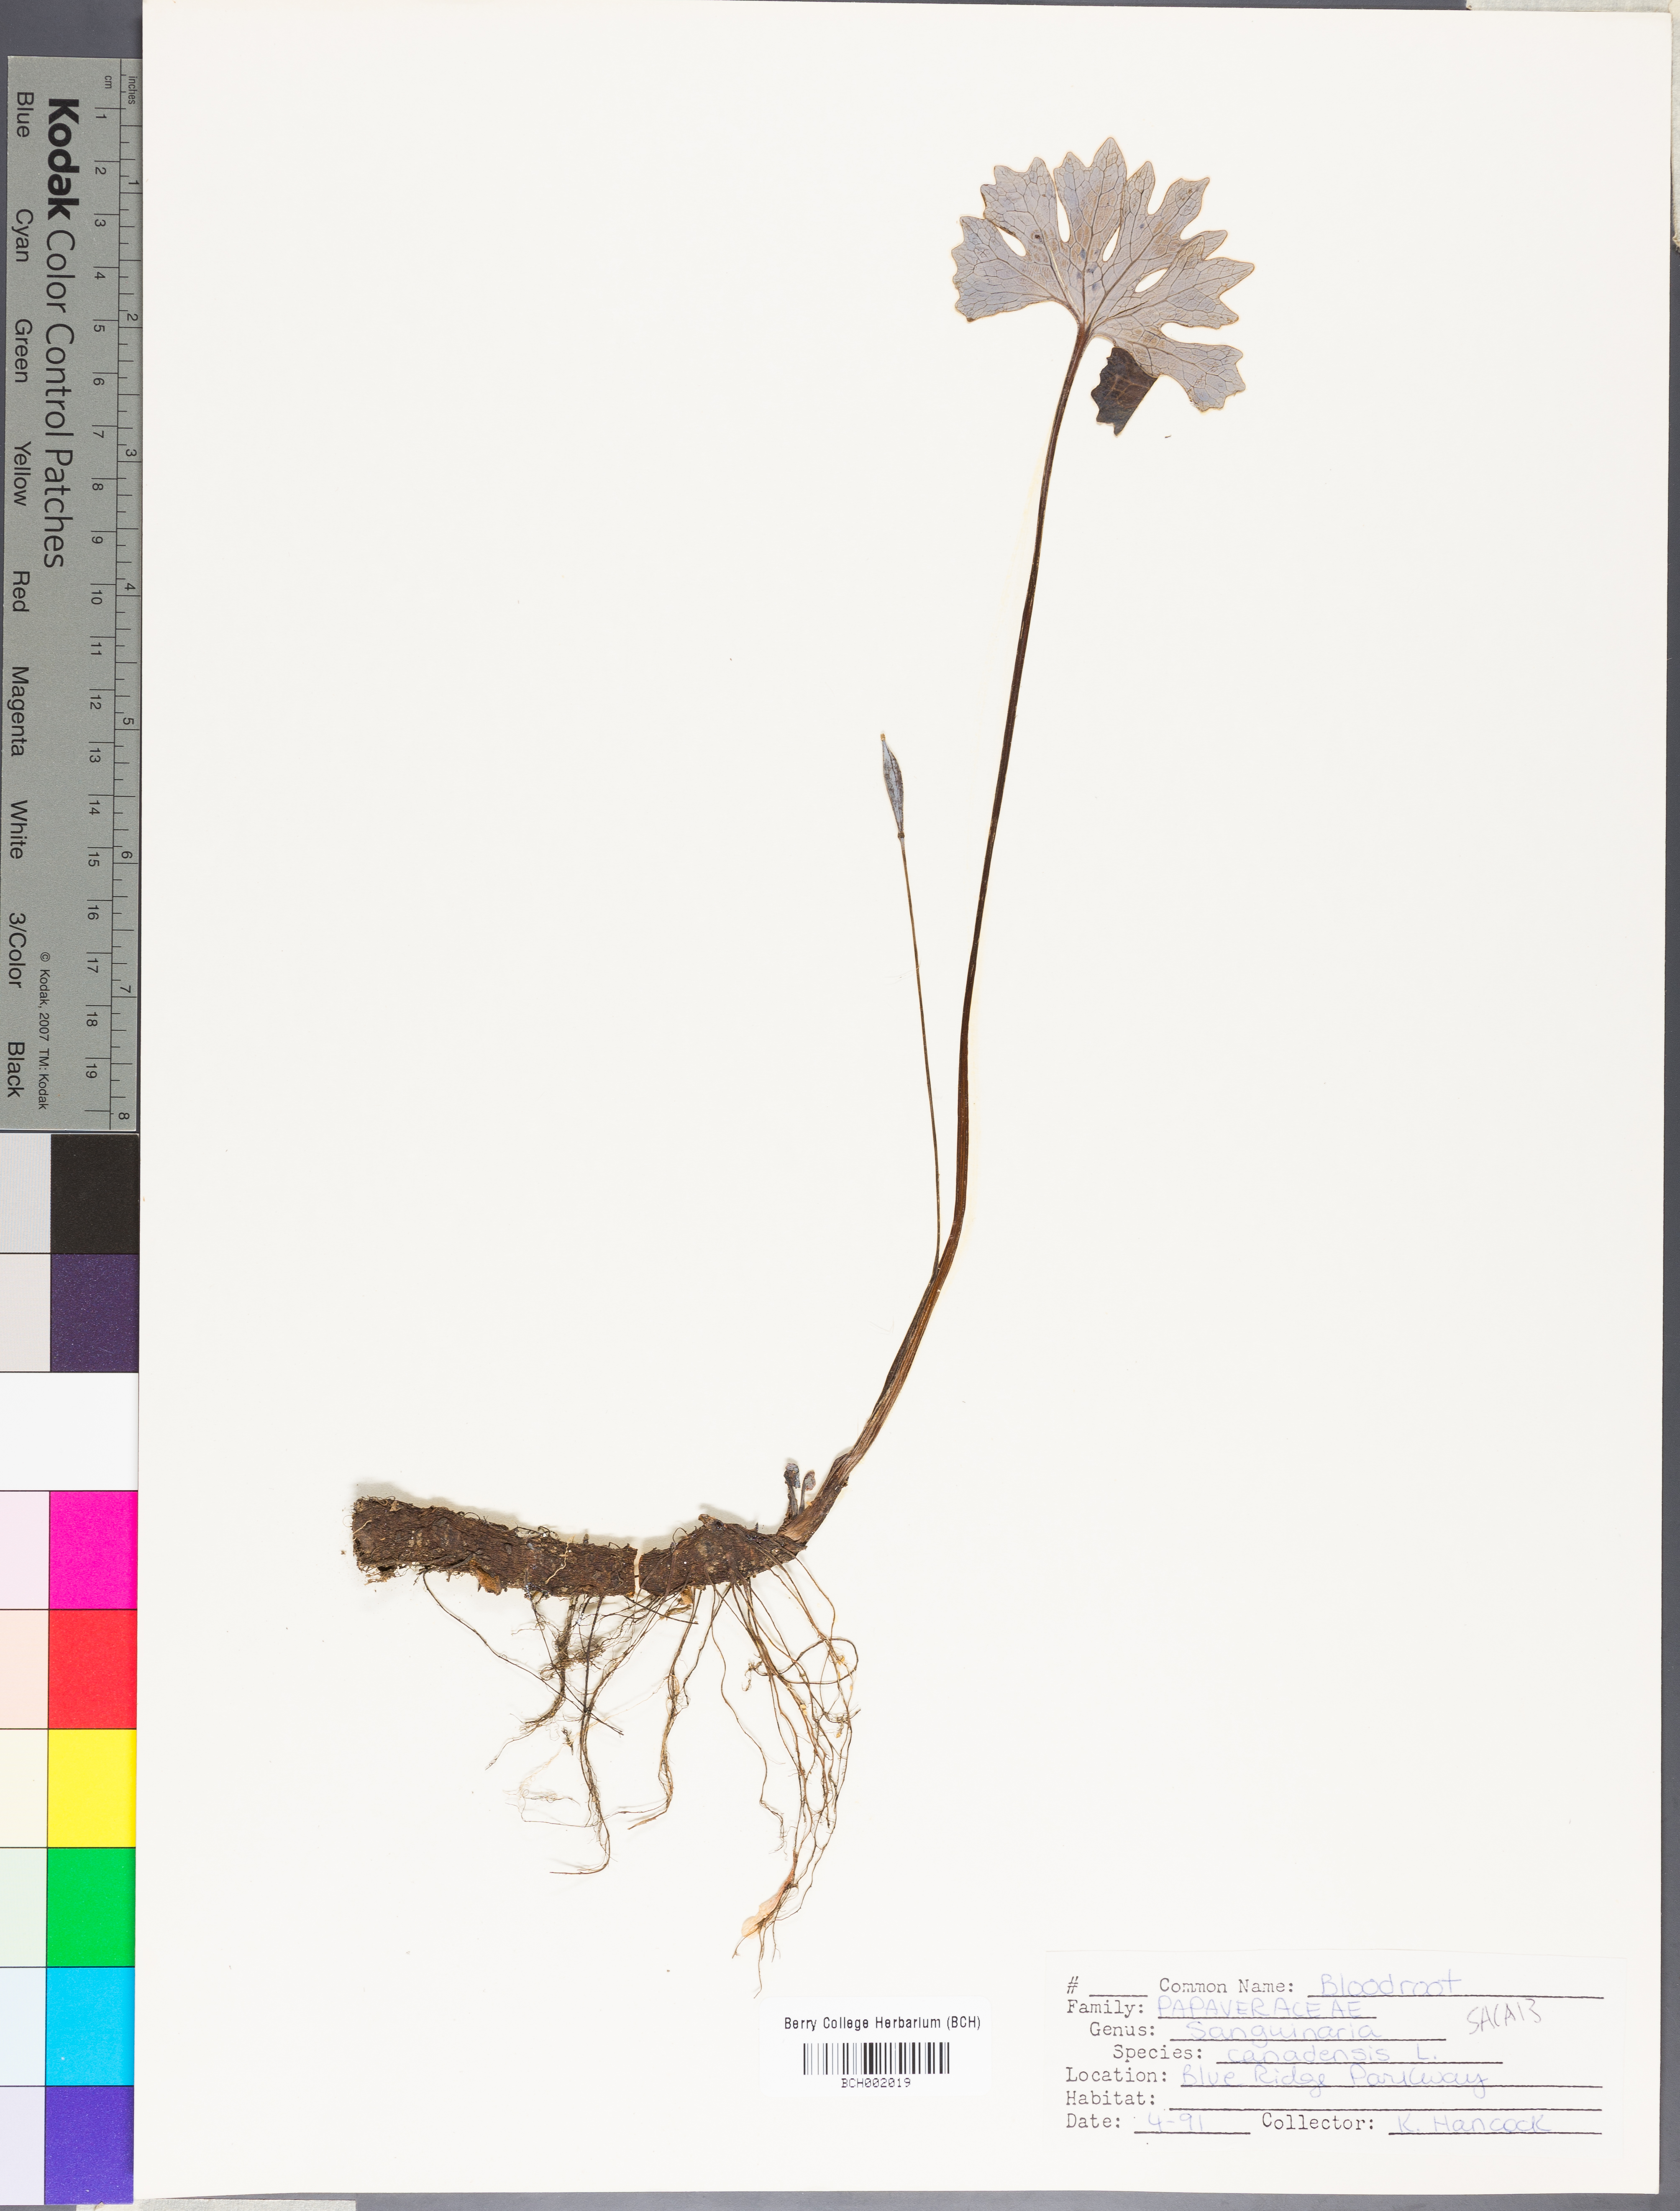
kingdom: Plantae
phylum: Tracheophyta
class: Magnoliopsida
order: Ranunculales
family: Papaveraceae
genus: Sanguinaria
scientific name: Sanguinaria canadensis
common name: Bloodroot
